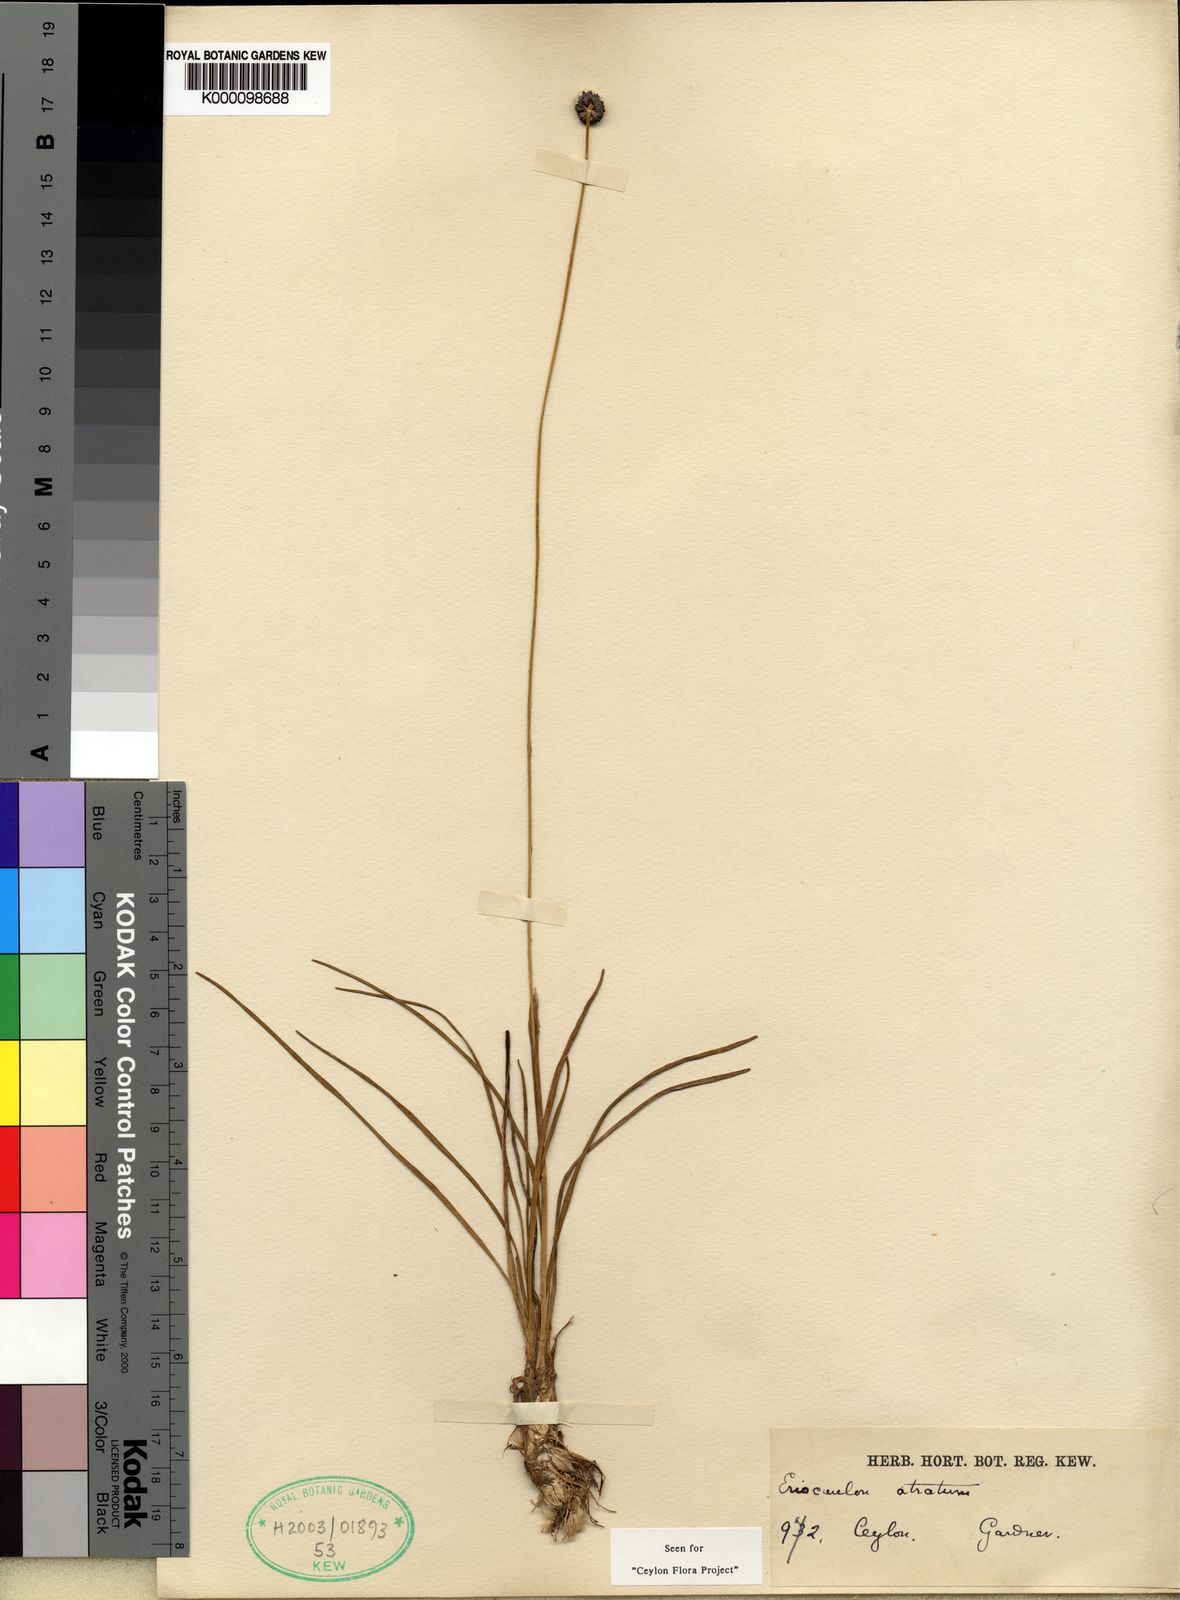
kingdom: Plantae
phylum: Tracheophyta
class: Liliopsida
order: Poales
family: Eriocaulaceae
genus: Eriocaulon
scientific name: Eriocaulon
